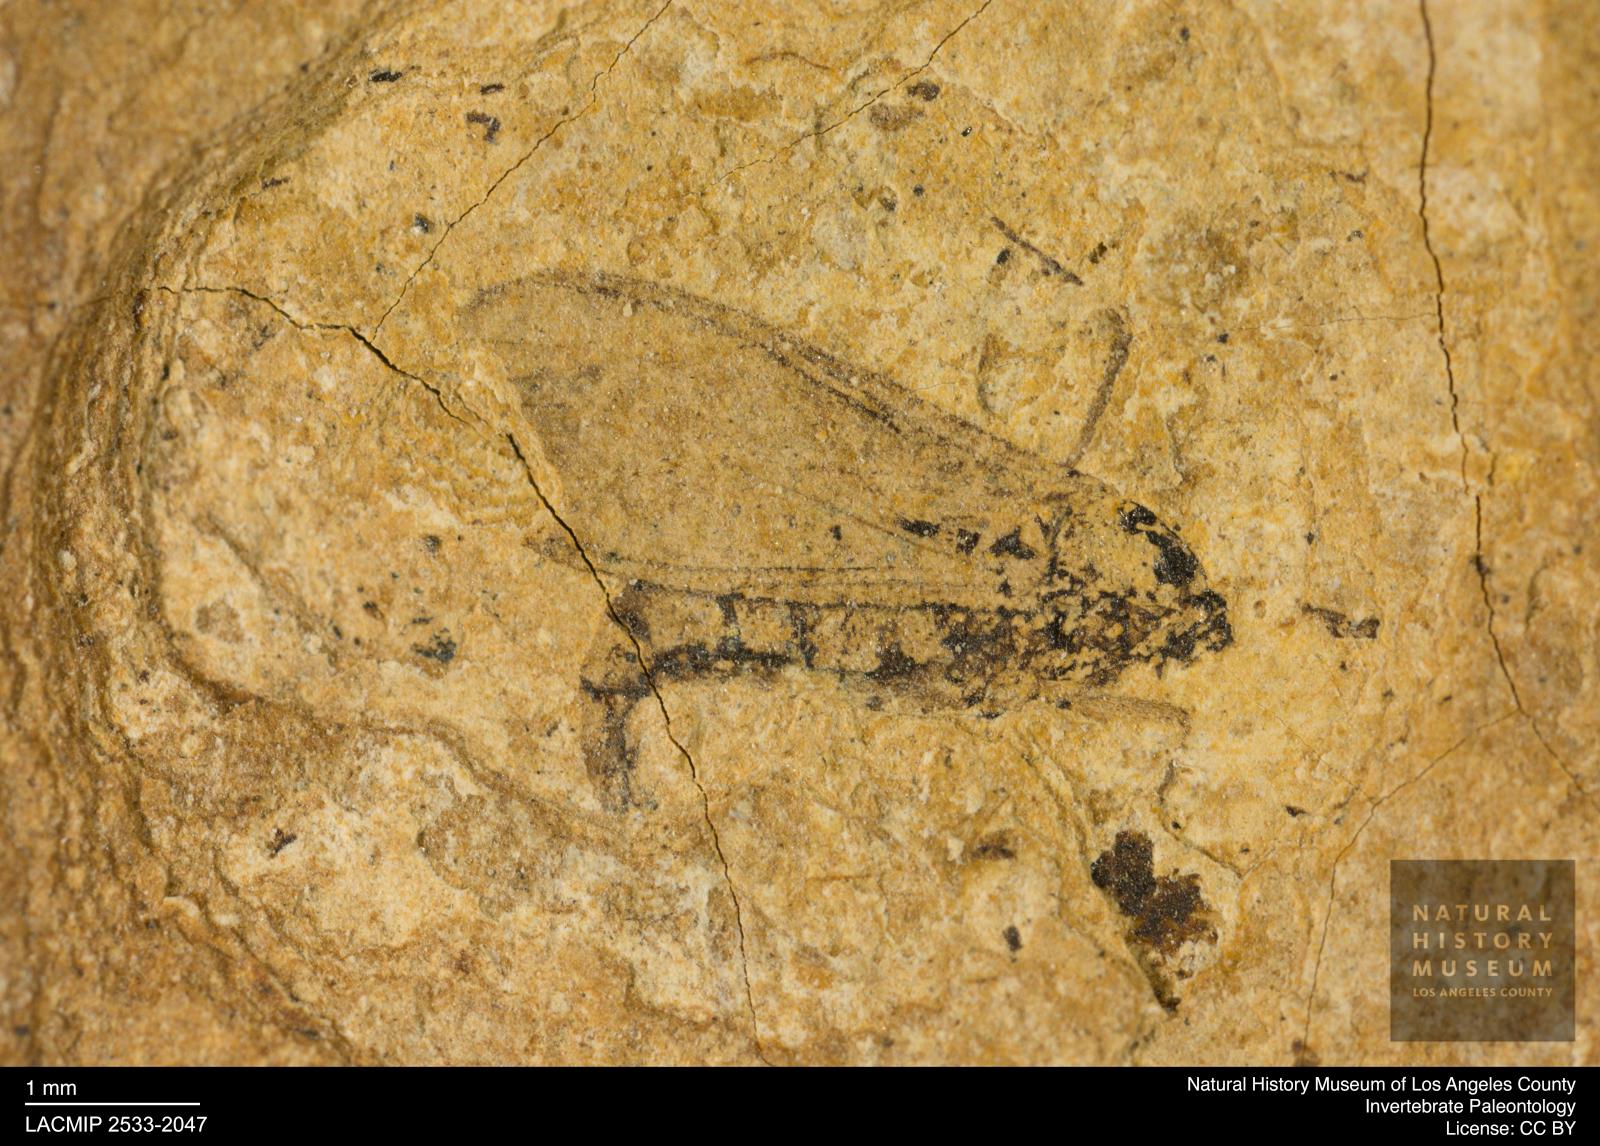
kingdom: Animalia
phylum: Arthropoda
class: Insecta
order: Diptera
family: Sciaridae
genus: Sciara
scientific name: Sciara winnertzii
